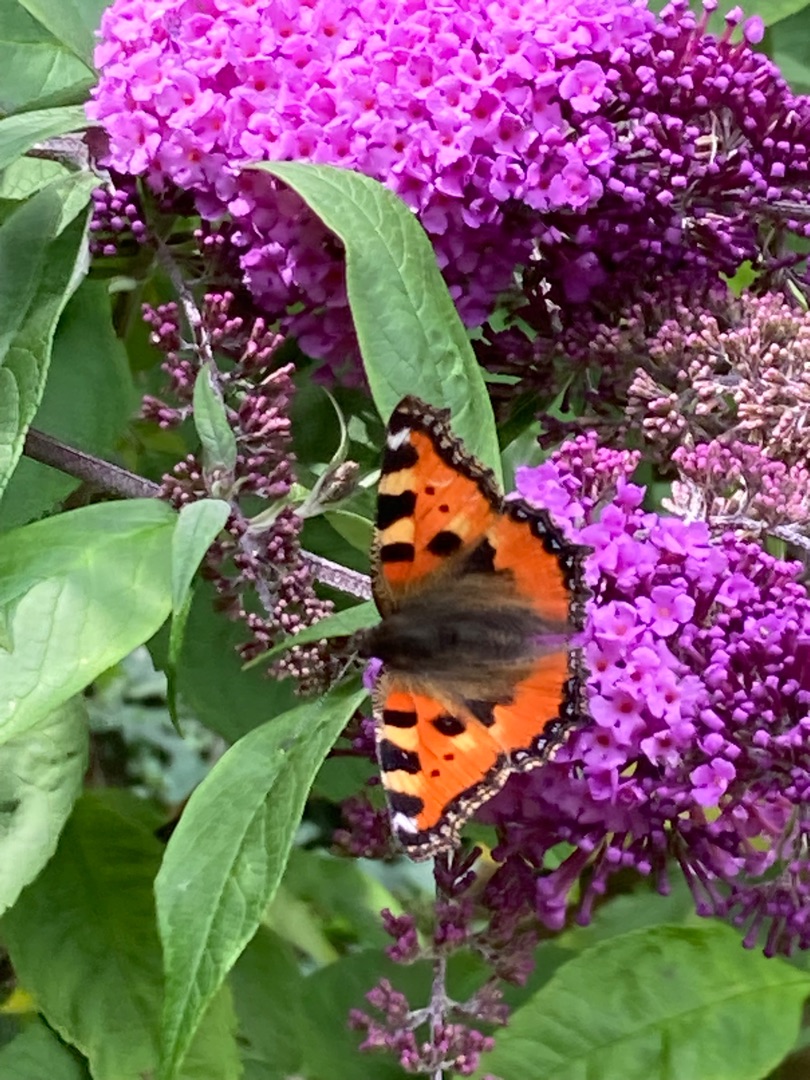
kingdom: Animalia
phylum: Arthropoda
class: Insecta
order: Lepidoptera
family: Nymphalidae
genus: Aglais
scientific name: Aglais urticae
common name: Nældens takvinge
